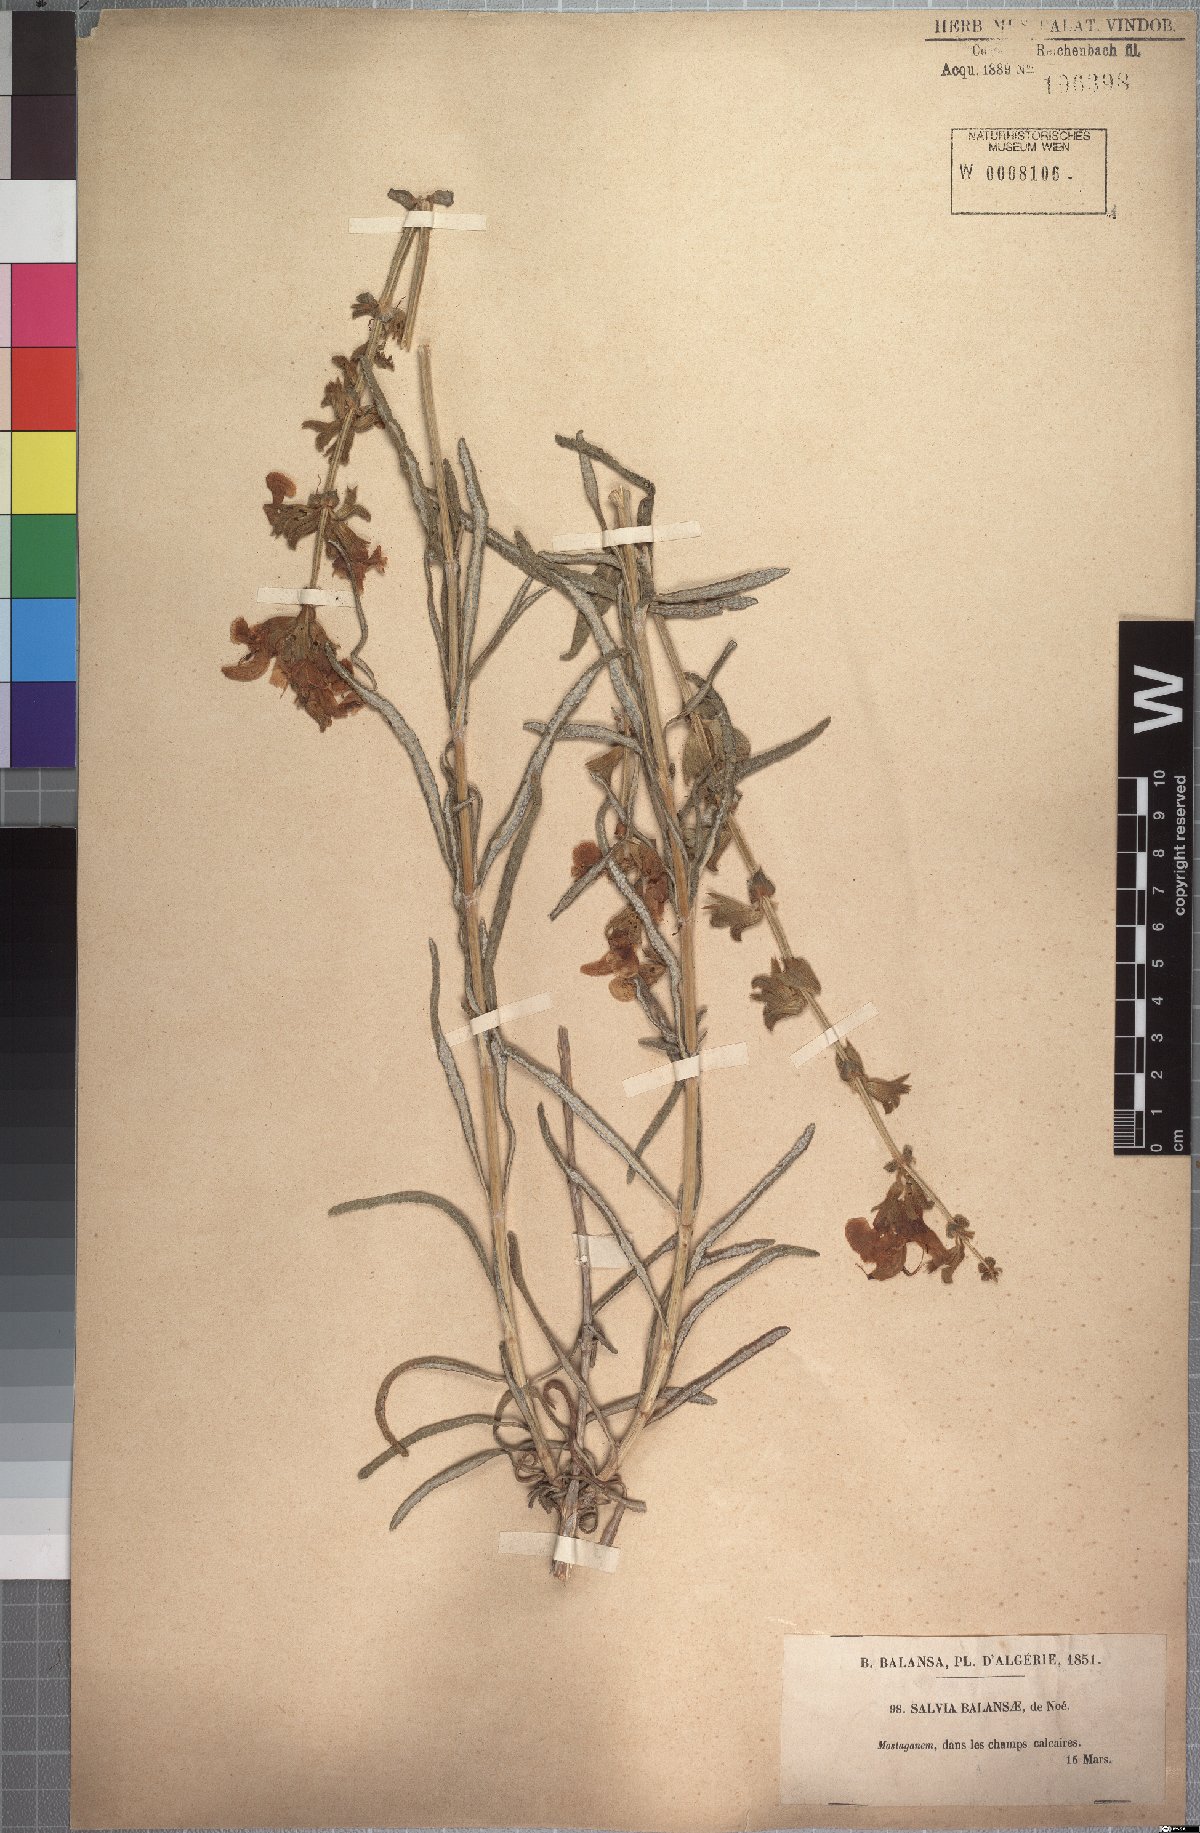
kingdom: Plantae
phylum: Tracheophyta
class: Magnoliopsida
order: Lamiales
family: Lamiaceae
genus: Salvia
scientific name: Salvia balansae
